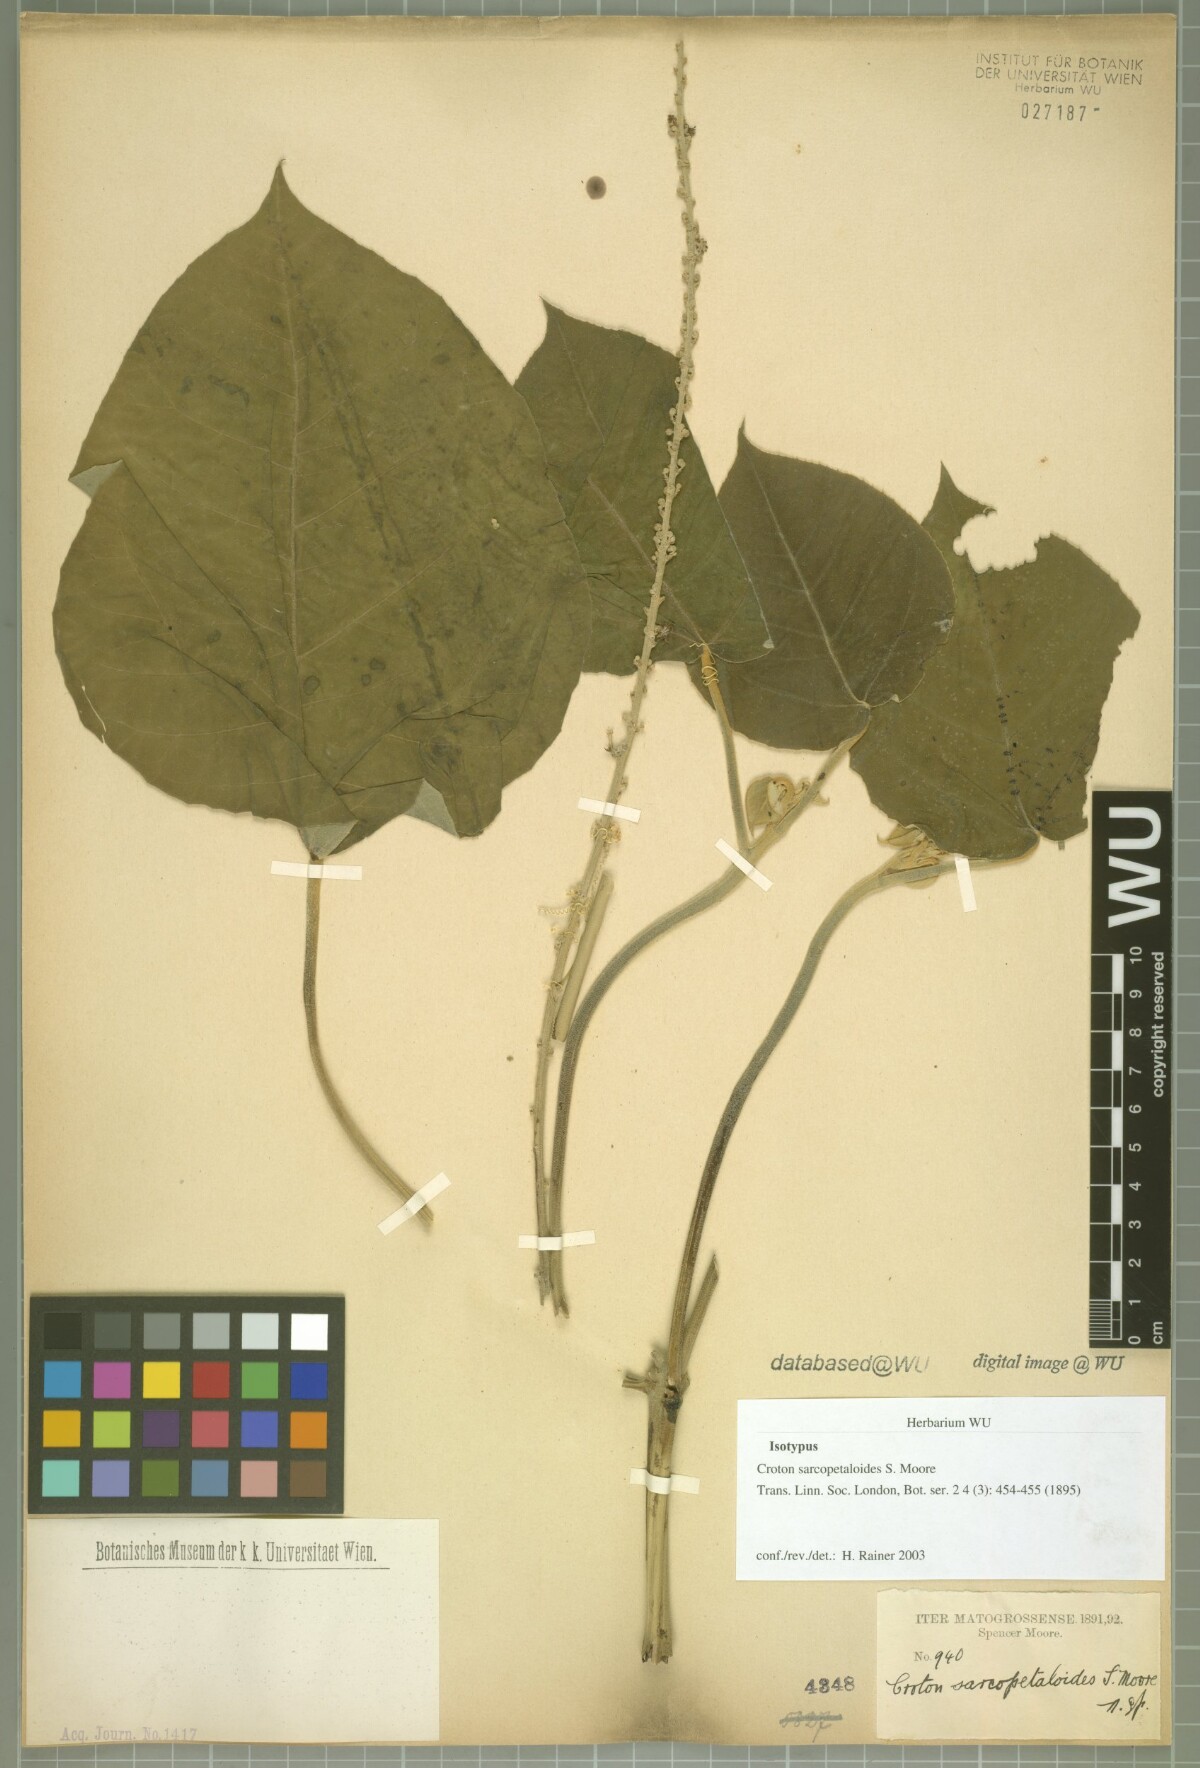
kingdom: Plantae
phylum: Tracheophyta
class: Magnoliopsida
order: Malpighiales
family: Euphorbiaceae
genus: Croton
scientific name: Croton sarcopetaloides
